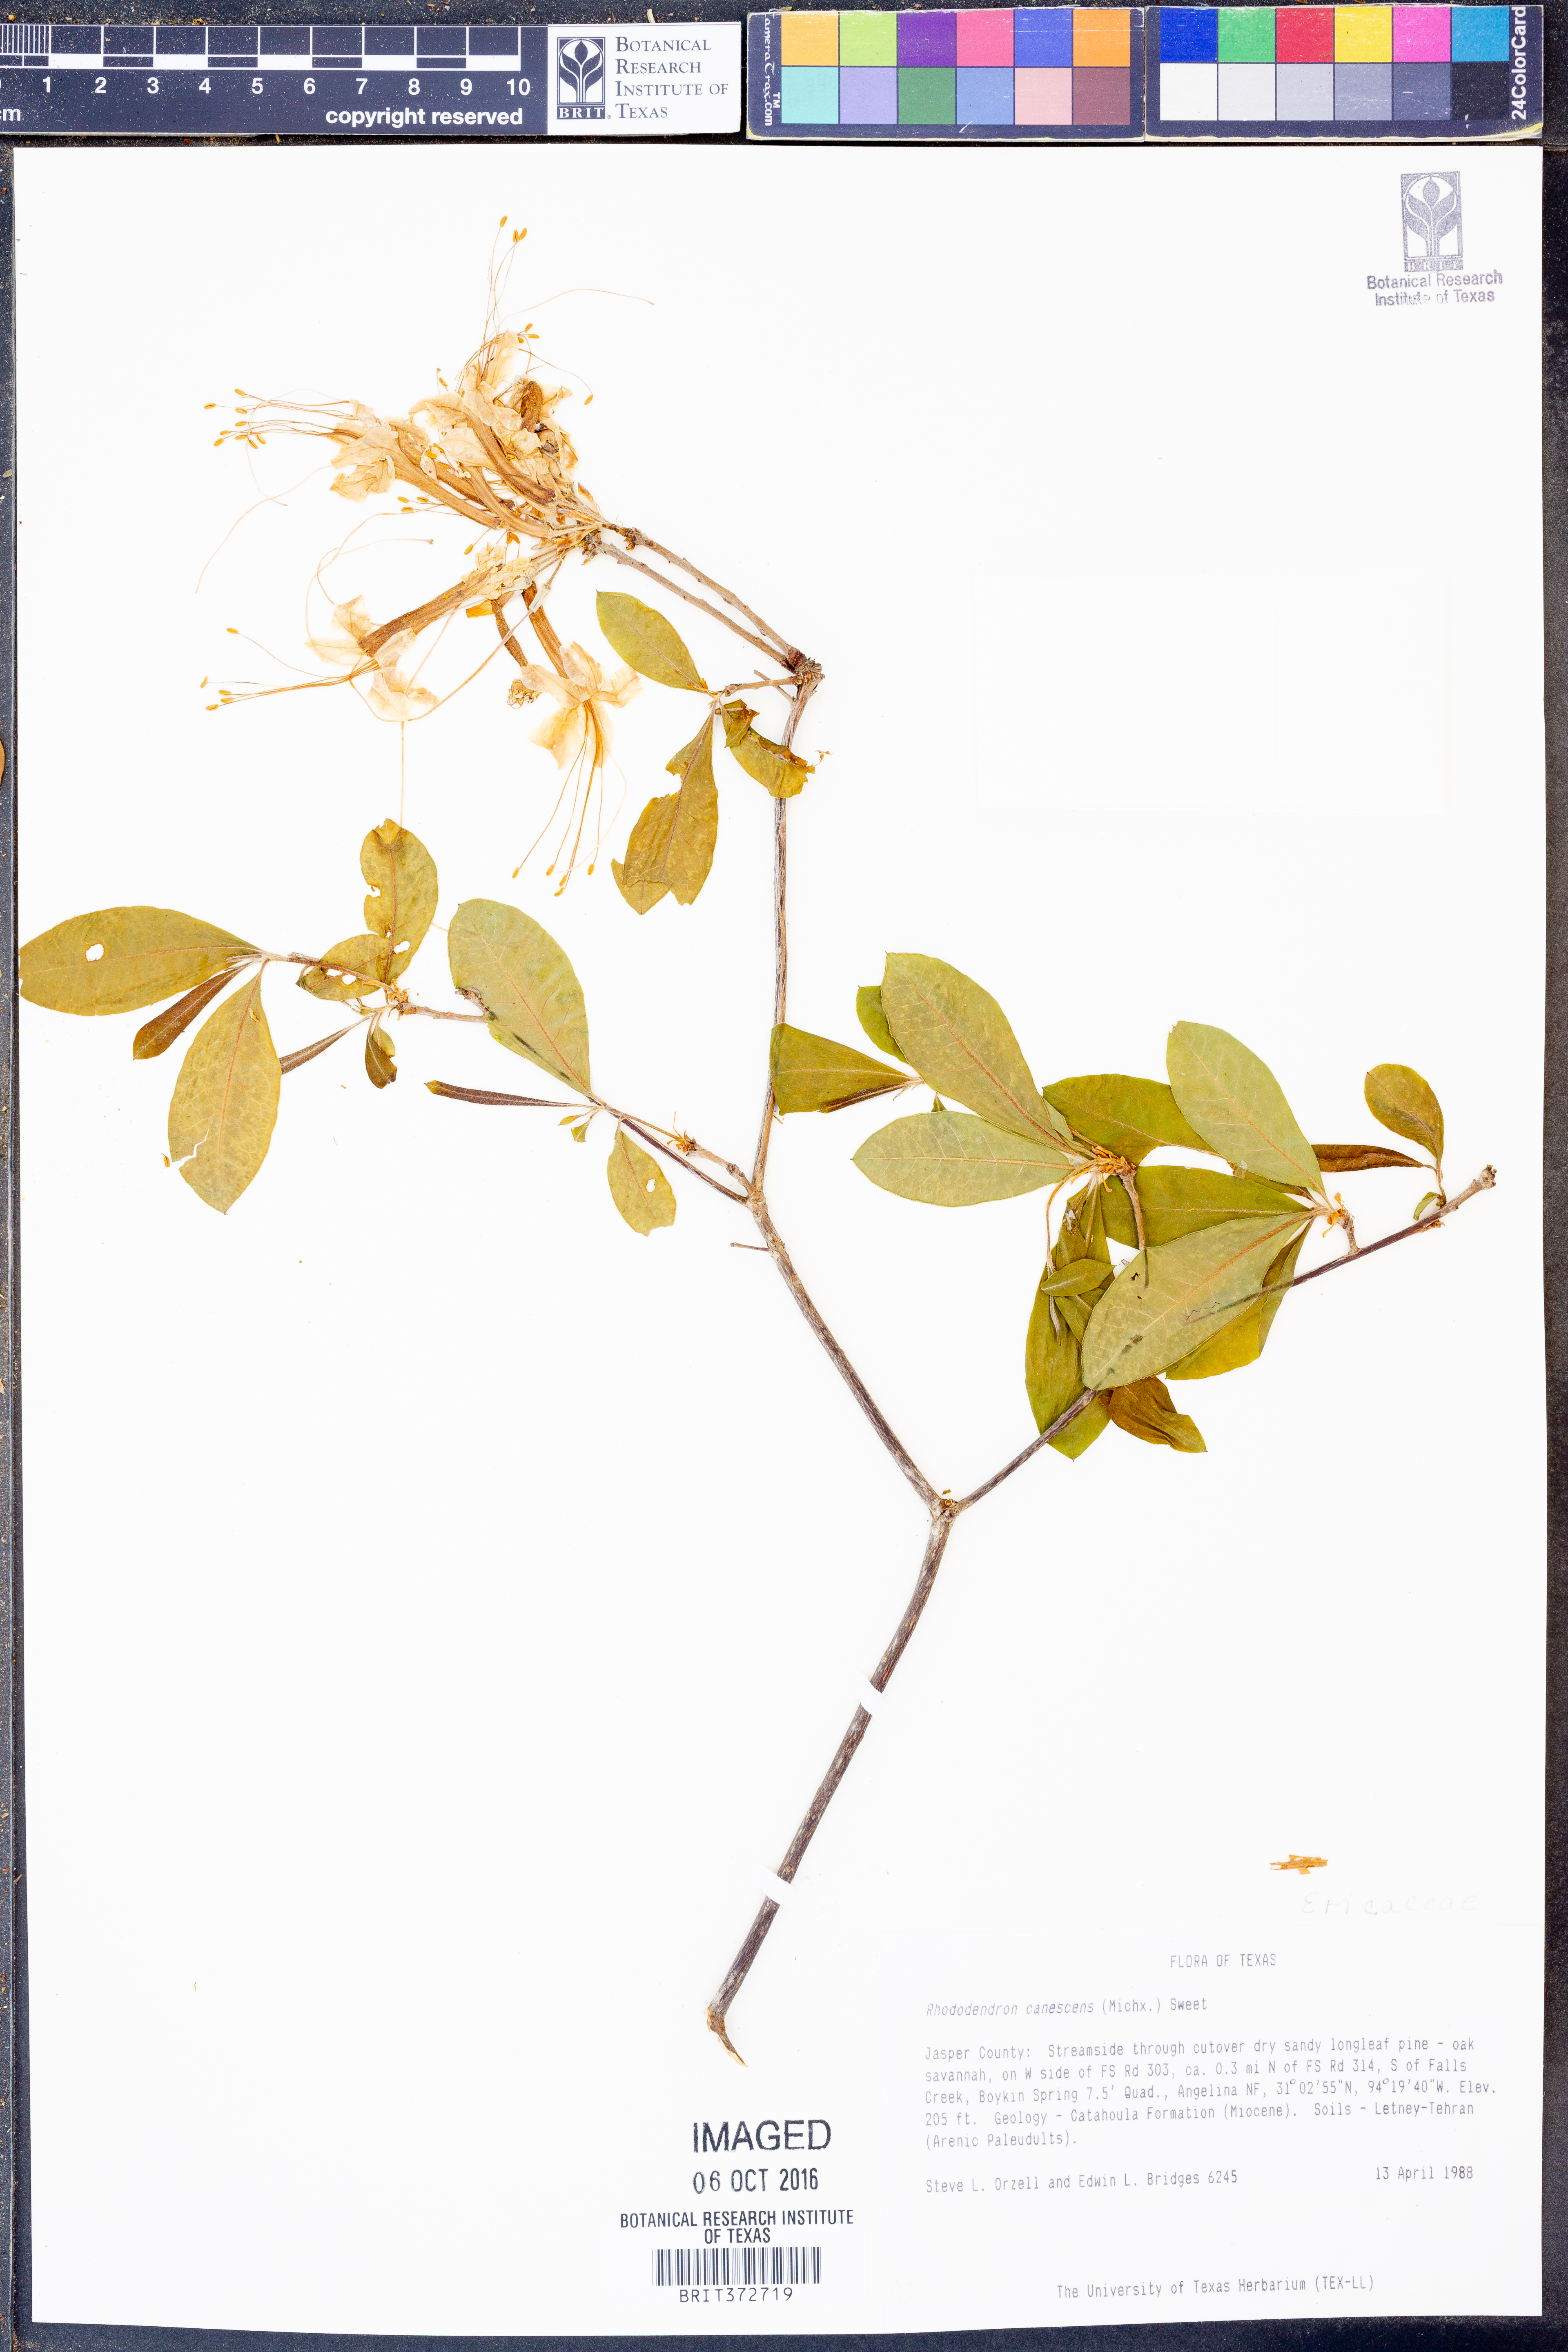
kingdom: Plantae
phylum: Tracheophyta
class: Magnoliopsida
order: Ericales
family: Ericaceae
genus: Rhododendron
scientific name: Rhododendron canescens
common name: Mountain azalea
